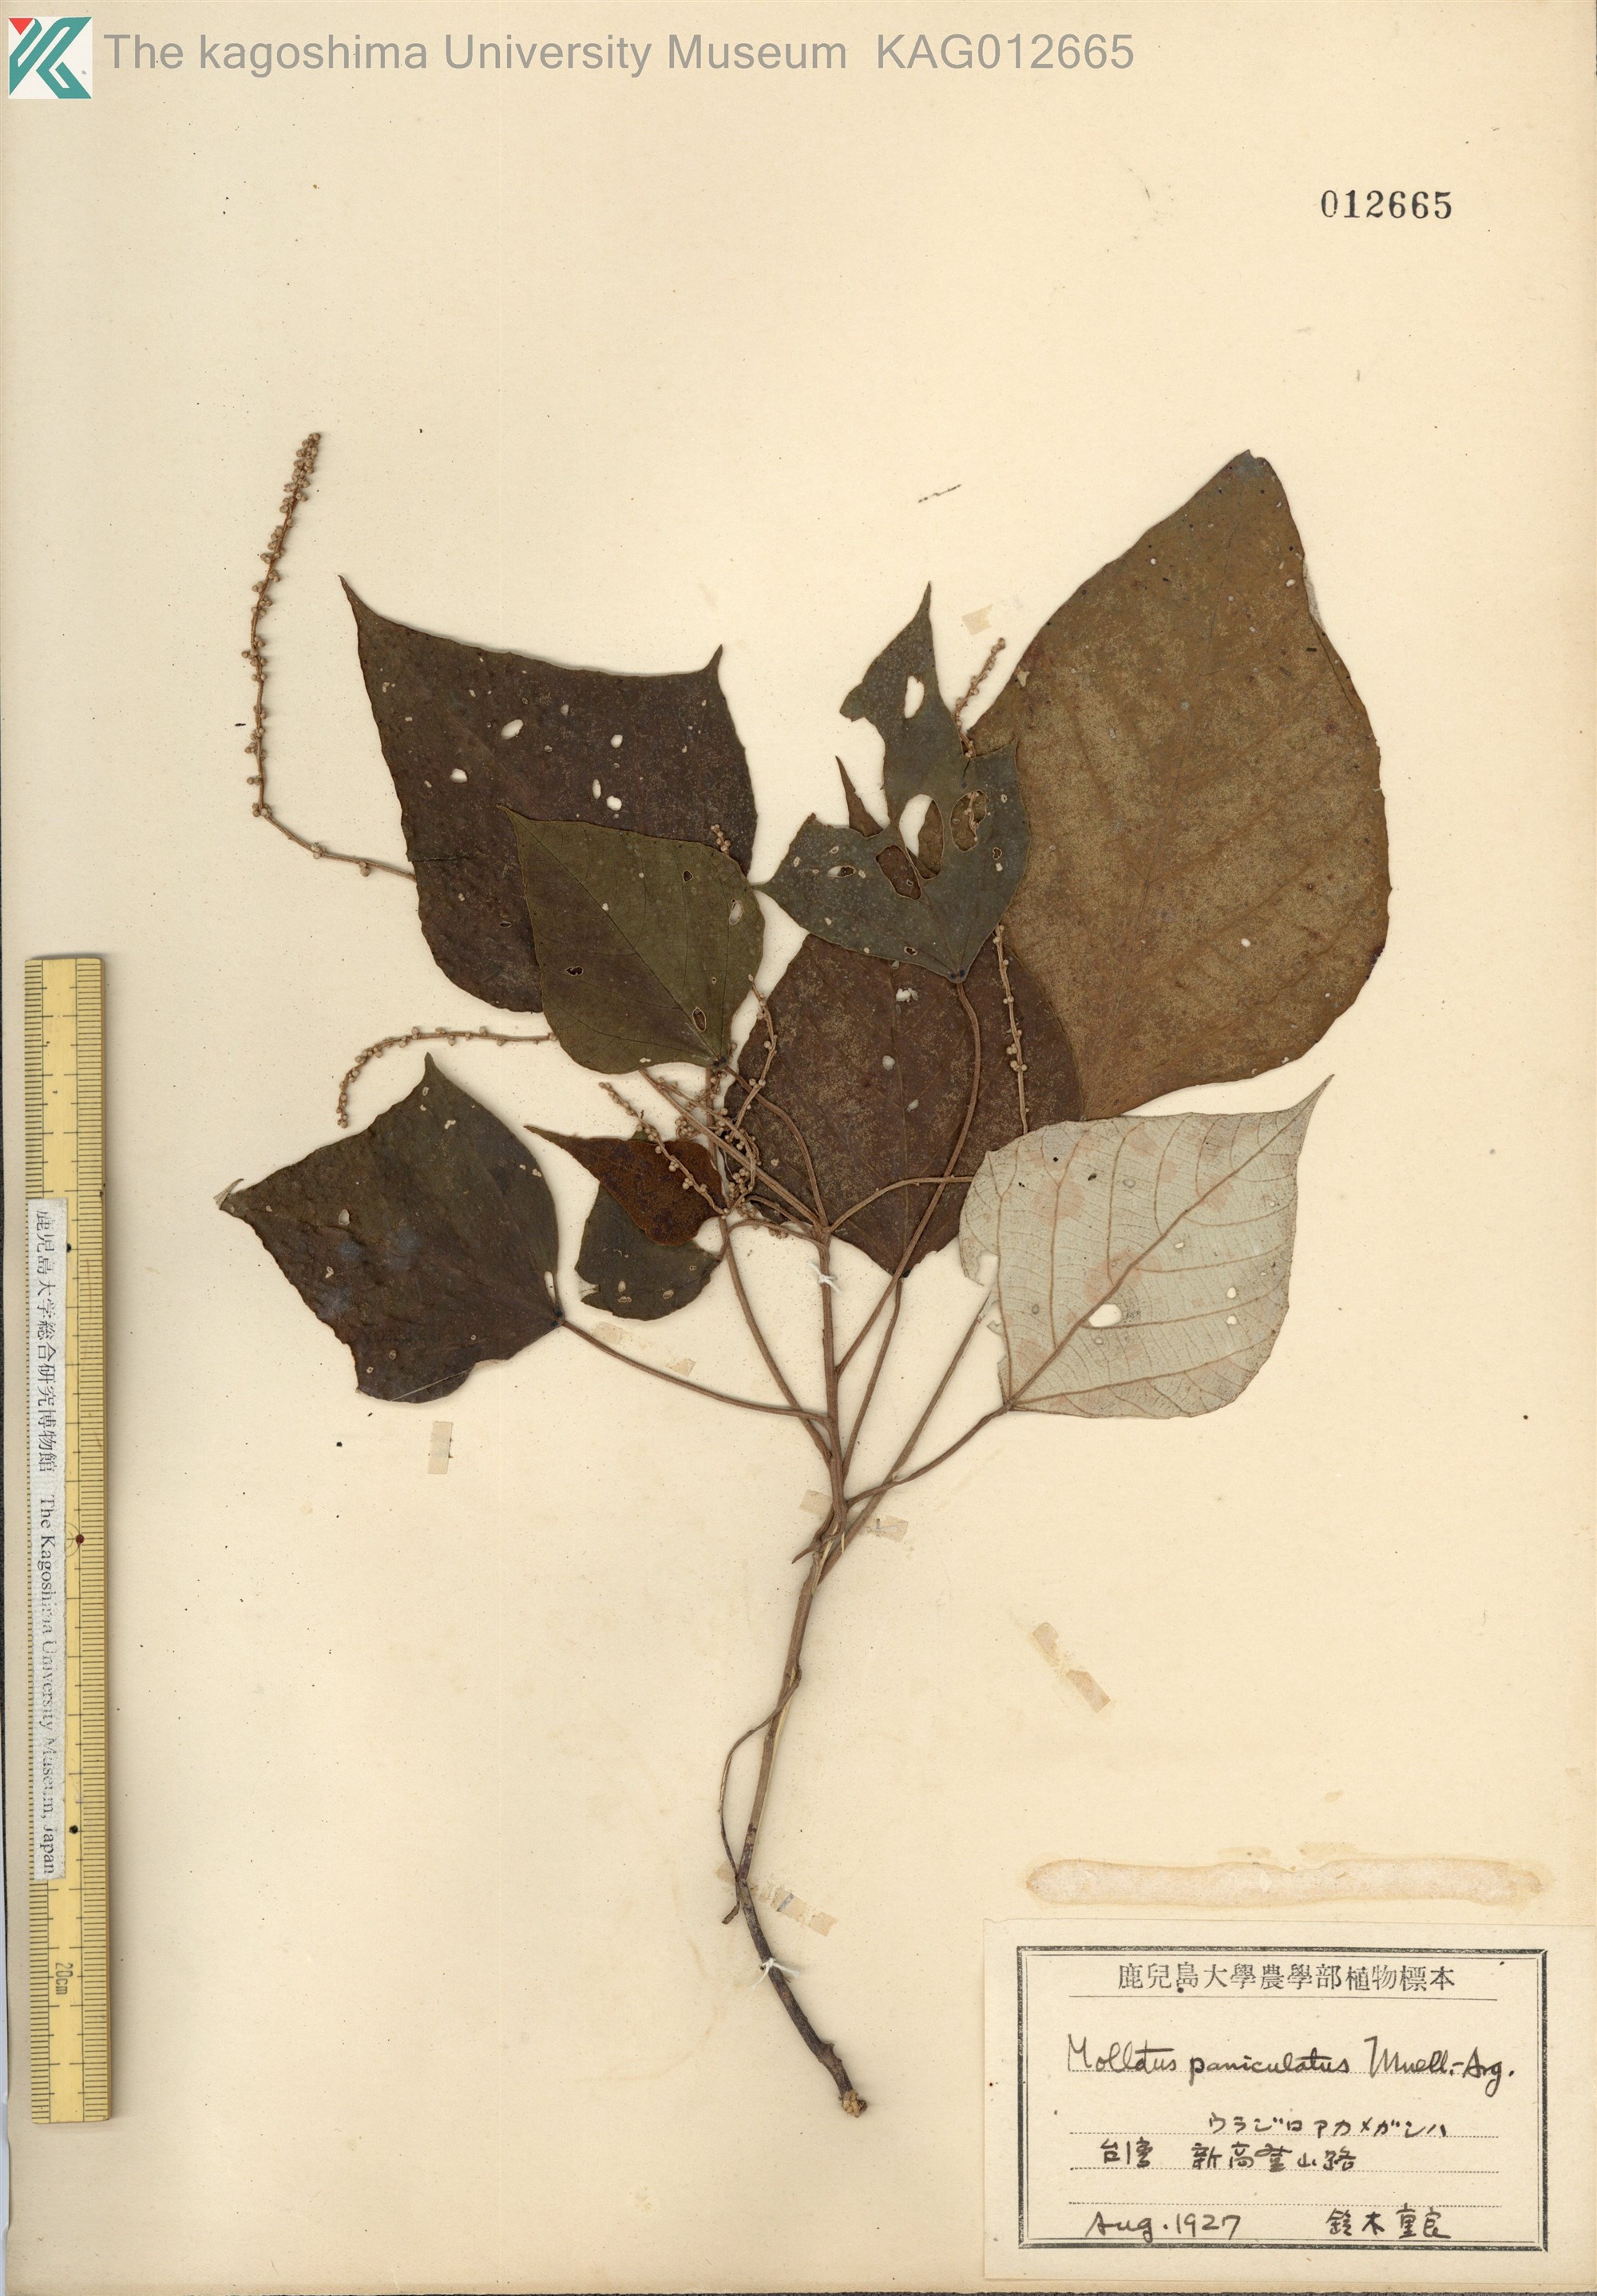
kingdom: Plantae
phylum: Tracheophyta
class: Magnoliopsida
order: Malpighiales
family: Euphorbiaceae
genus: Mallotus
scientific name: Mallotus paniculatus
